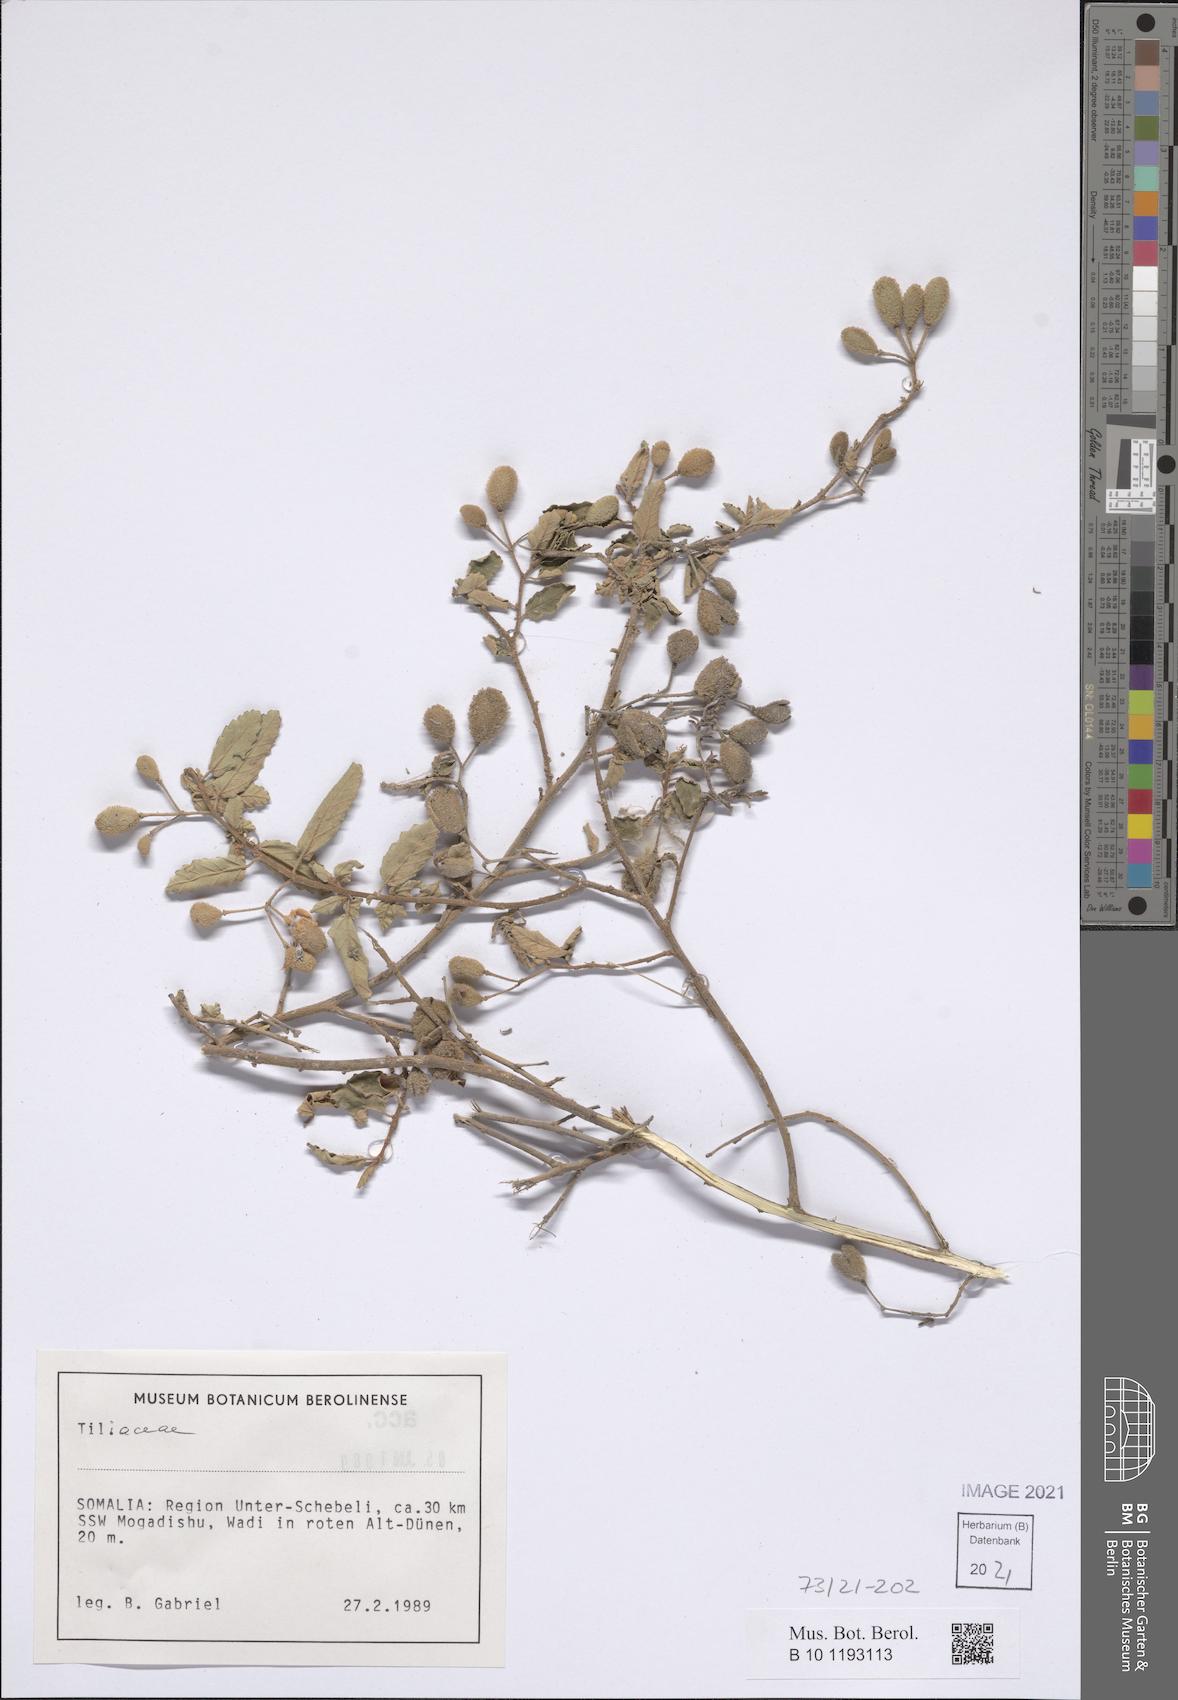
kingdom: Plantae
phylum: Tracheophyta
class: Magnoliopsida
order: Malvales
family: Malvaceae
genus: Corchorus
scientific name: Corchorus cinerascens
